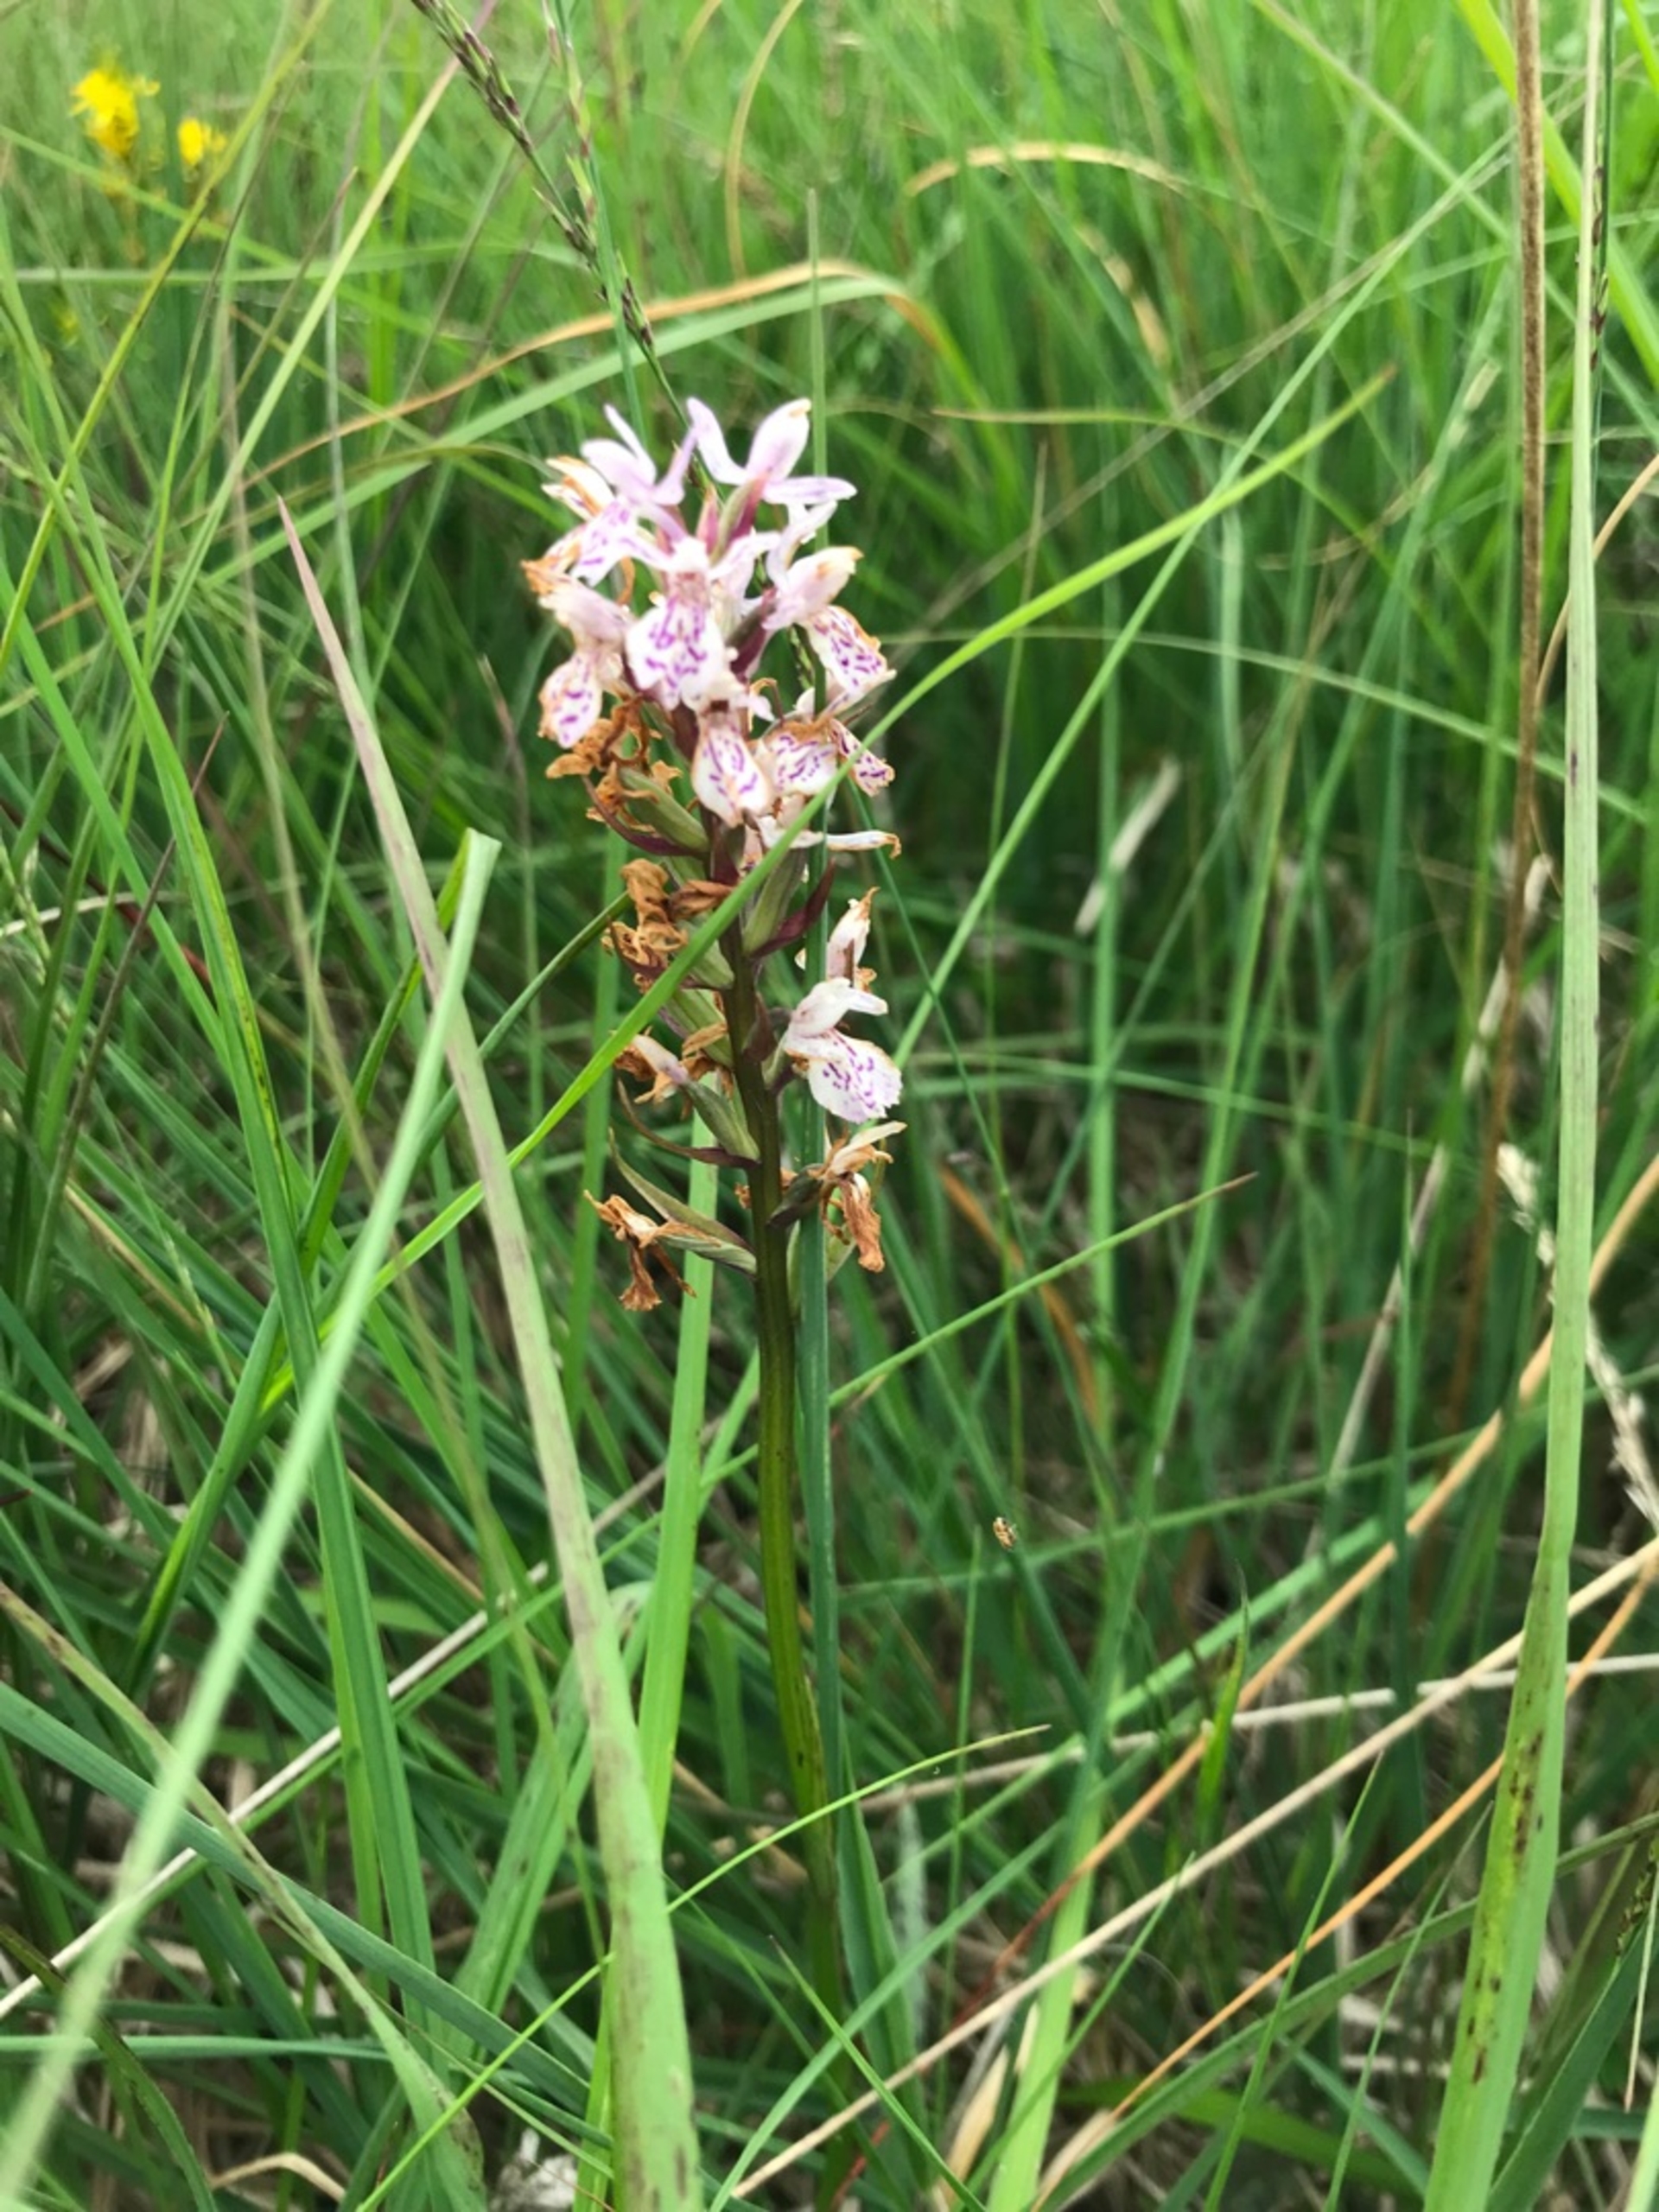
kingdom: Plantae
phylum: Tracheophyta
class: Liliopsida
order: Asparagales
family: Orchidaceae
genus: Dactylorhiza
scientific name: Dactylorhiza maculata
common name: Plettet gøgeurt
